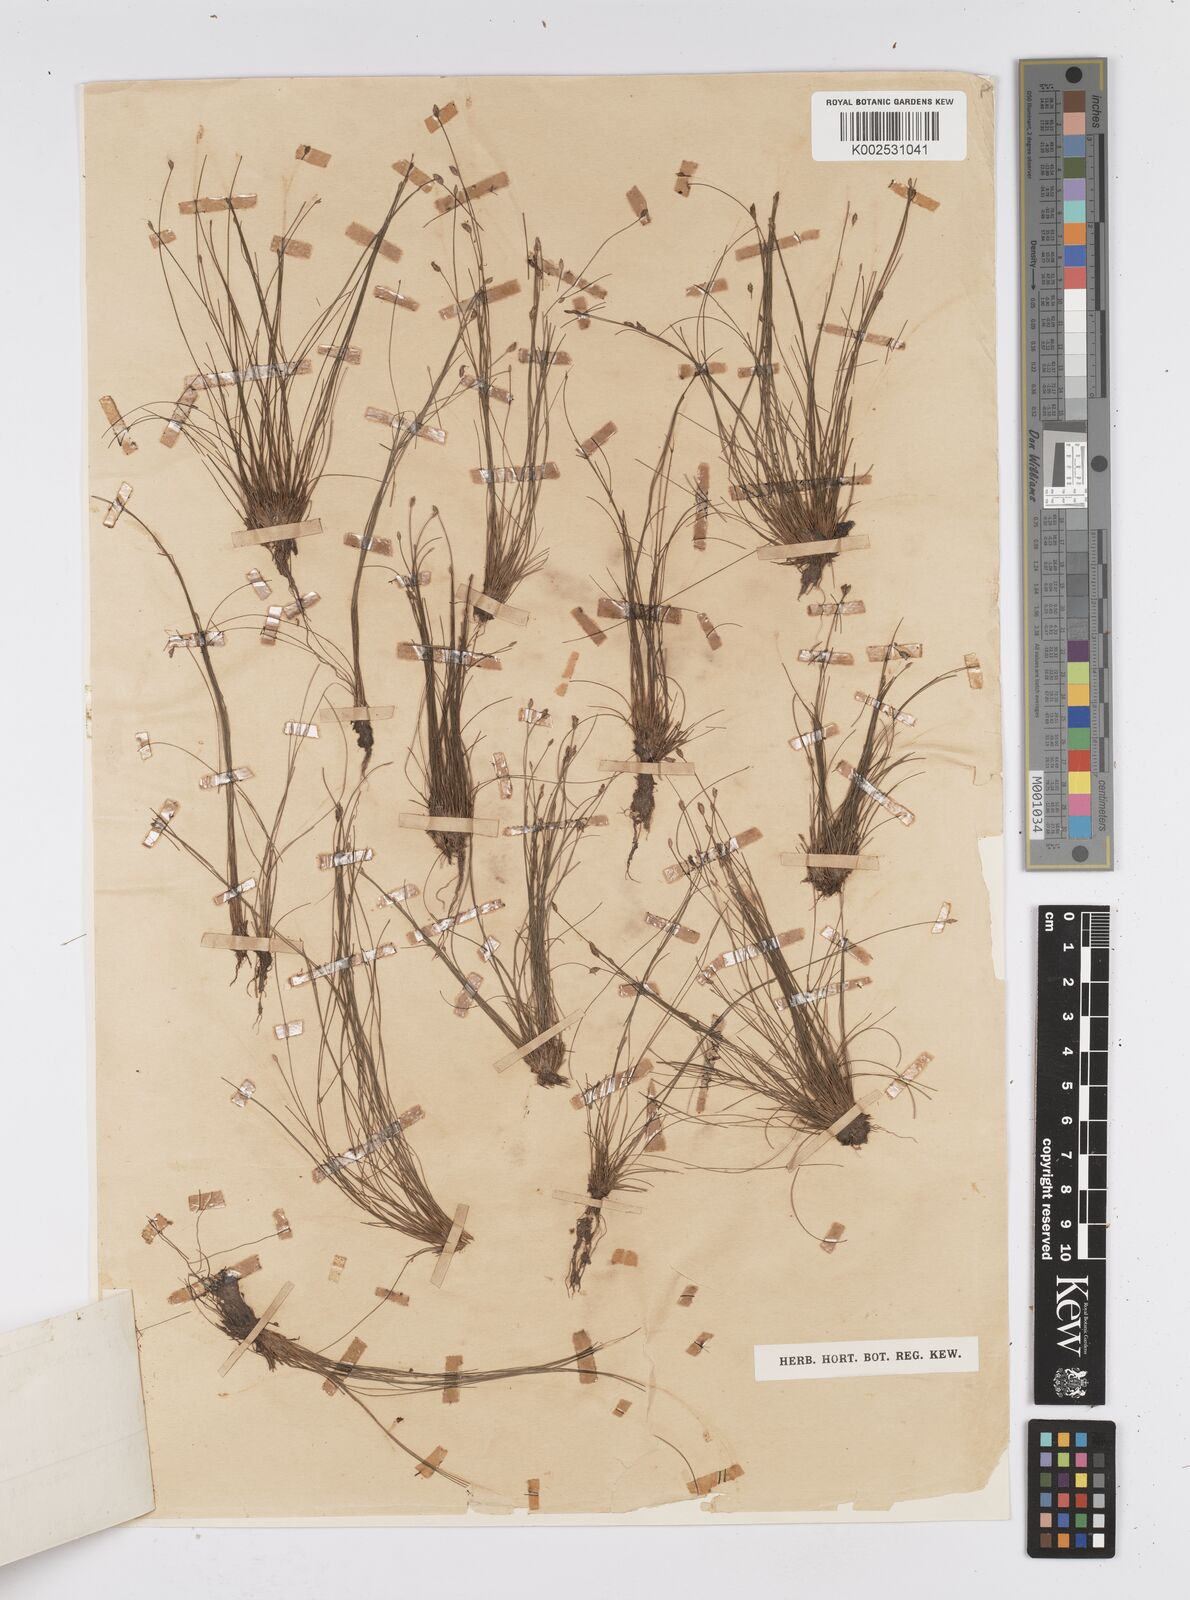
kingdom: Plantae
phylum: Tracheophyta
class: Liliopsida
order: Poales
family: Cyperaceae
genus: Eleocharis
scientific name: Eleocharis subfoliata
